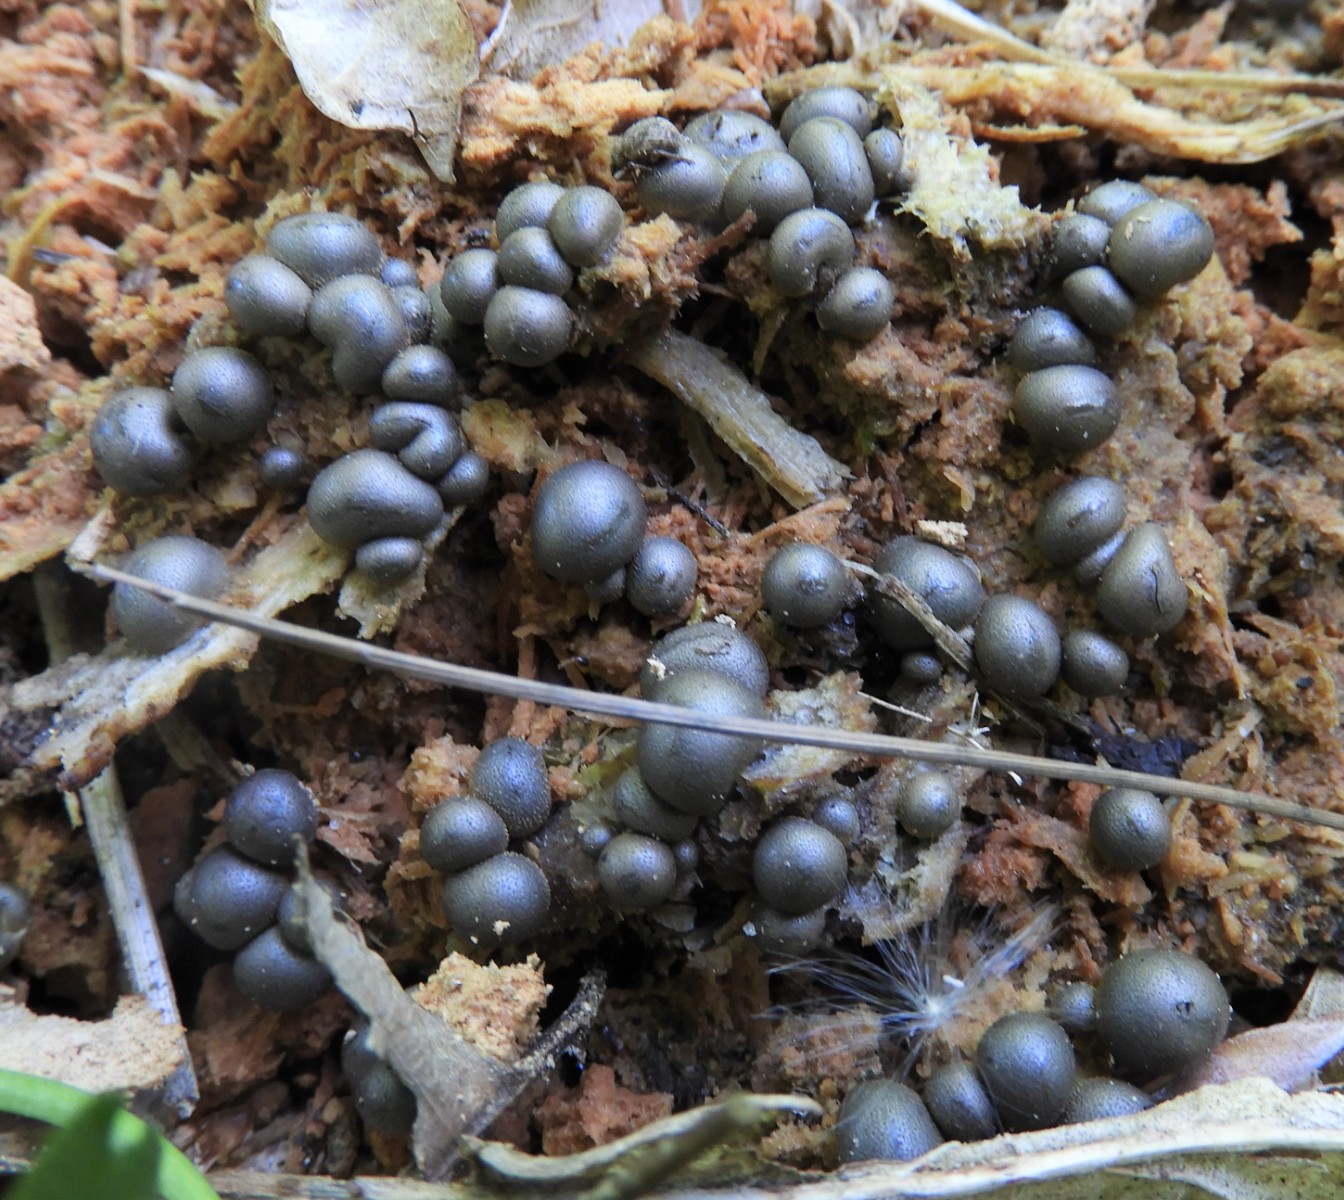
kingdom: Protozoa
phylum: Mycetozoa
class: Myxomycetes
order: Cribrariales
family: Tubiferaceae
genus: Lycogala
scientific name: Lycogala epidendrum
